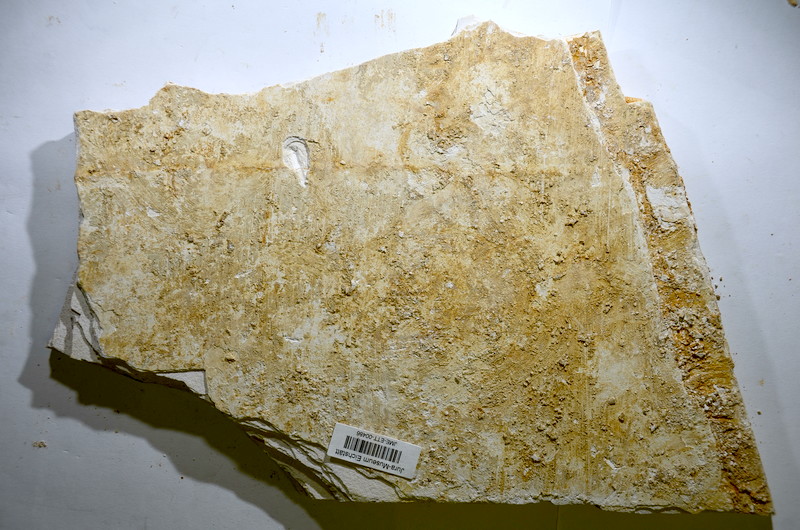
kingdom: Animalia
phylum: Chordata
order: Salmoniformes
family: Orthogonikleithridae
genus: Orthogonikleithrus
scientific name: Orthogonikleithrus hoelli
